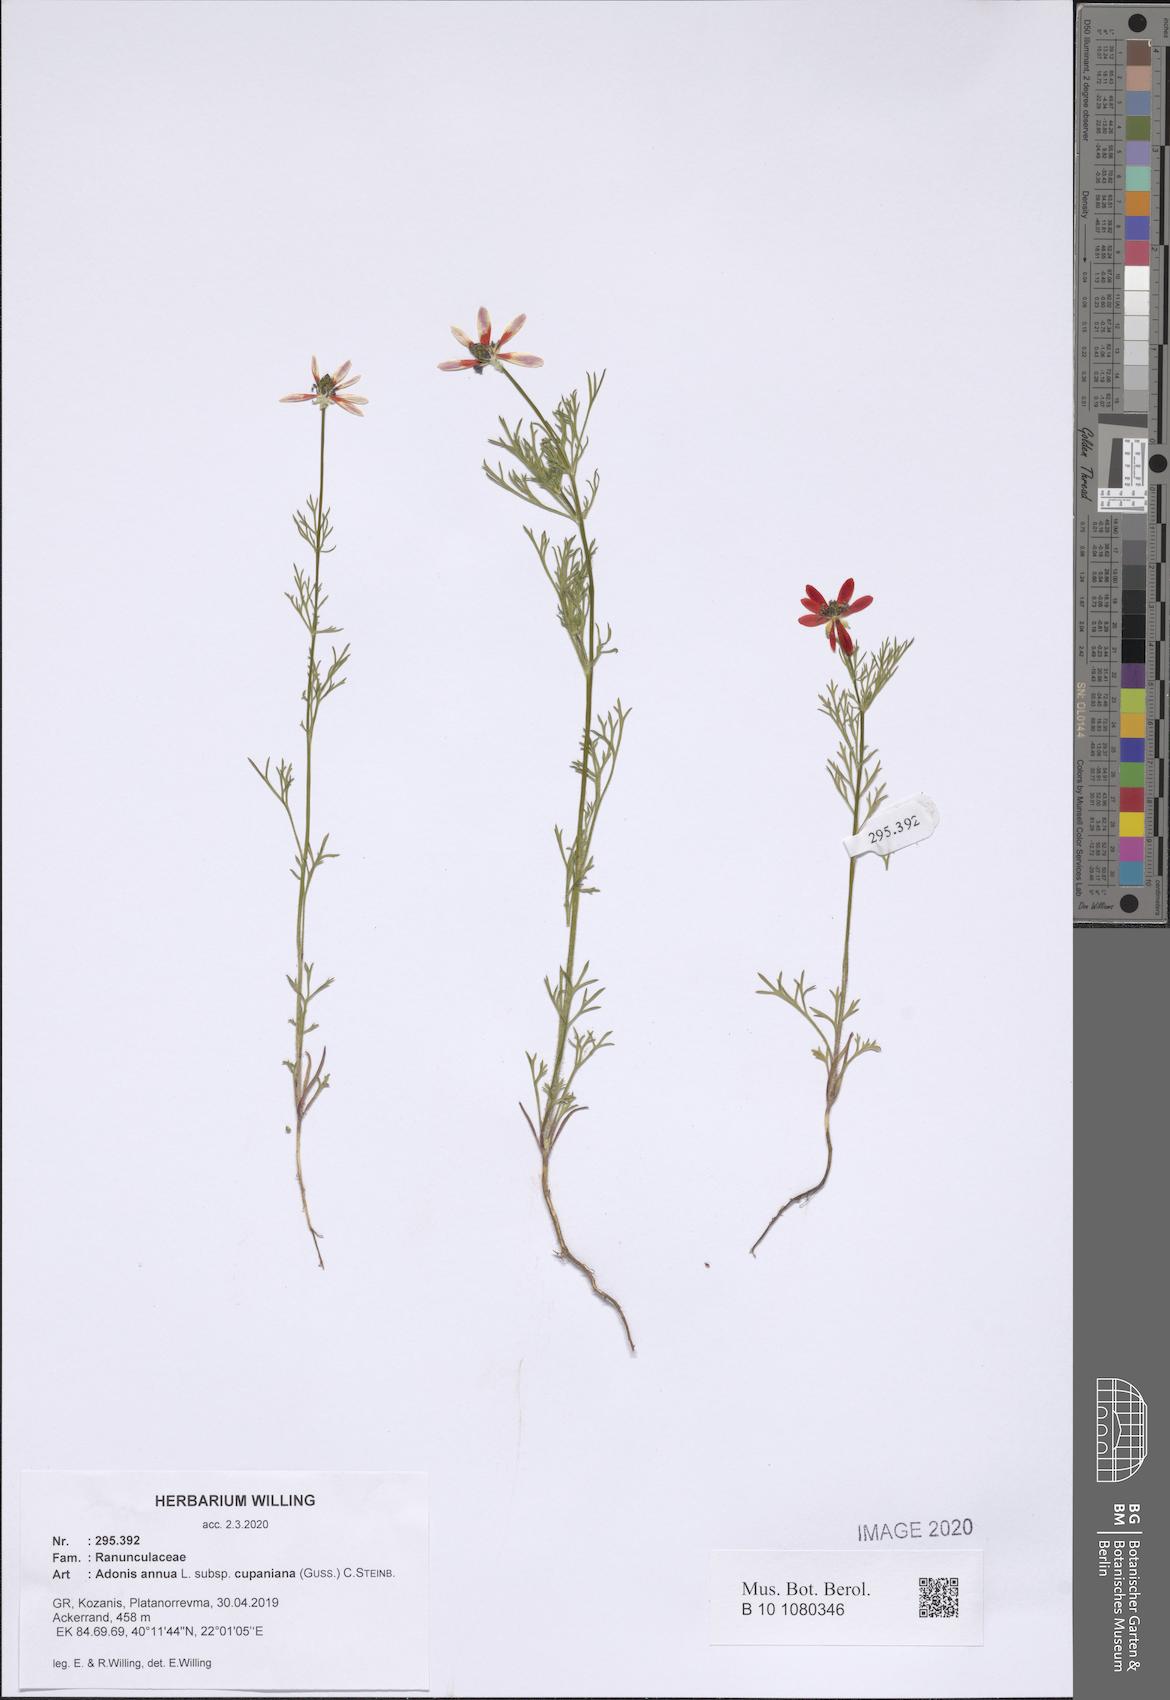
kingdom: Plantae
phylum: Tracheophyta
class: Magnoliopsida
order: Ranunculales
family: Ranunculaceae
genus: Adonis
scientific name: Adonis annua
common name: Pheasant's-eye
